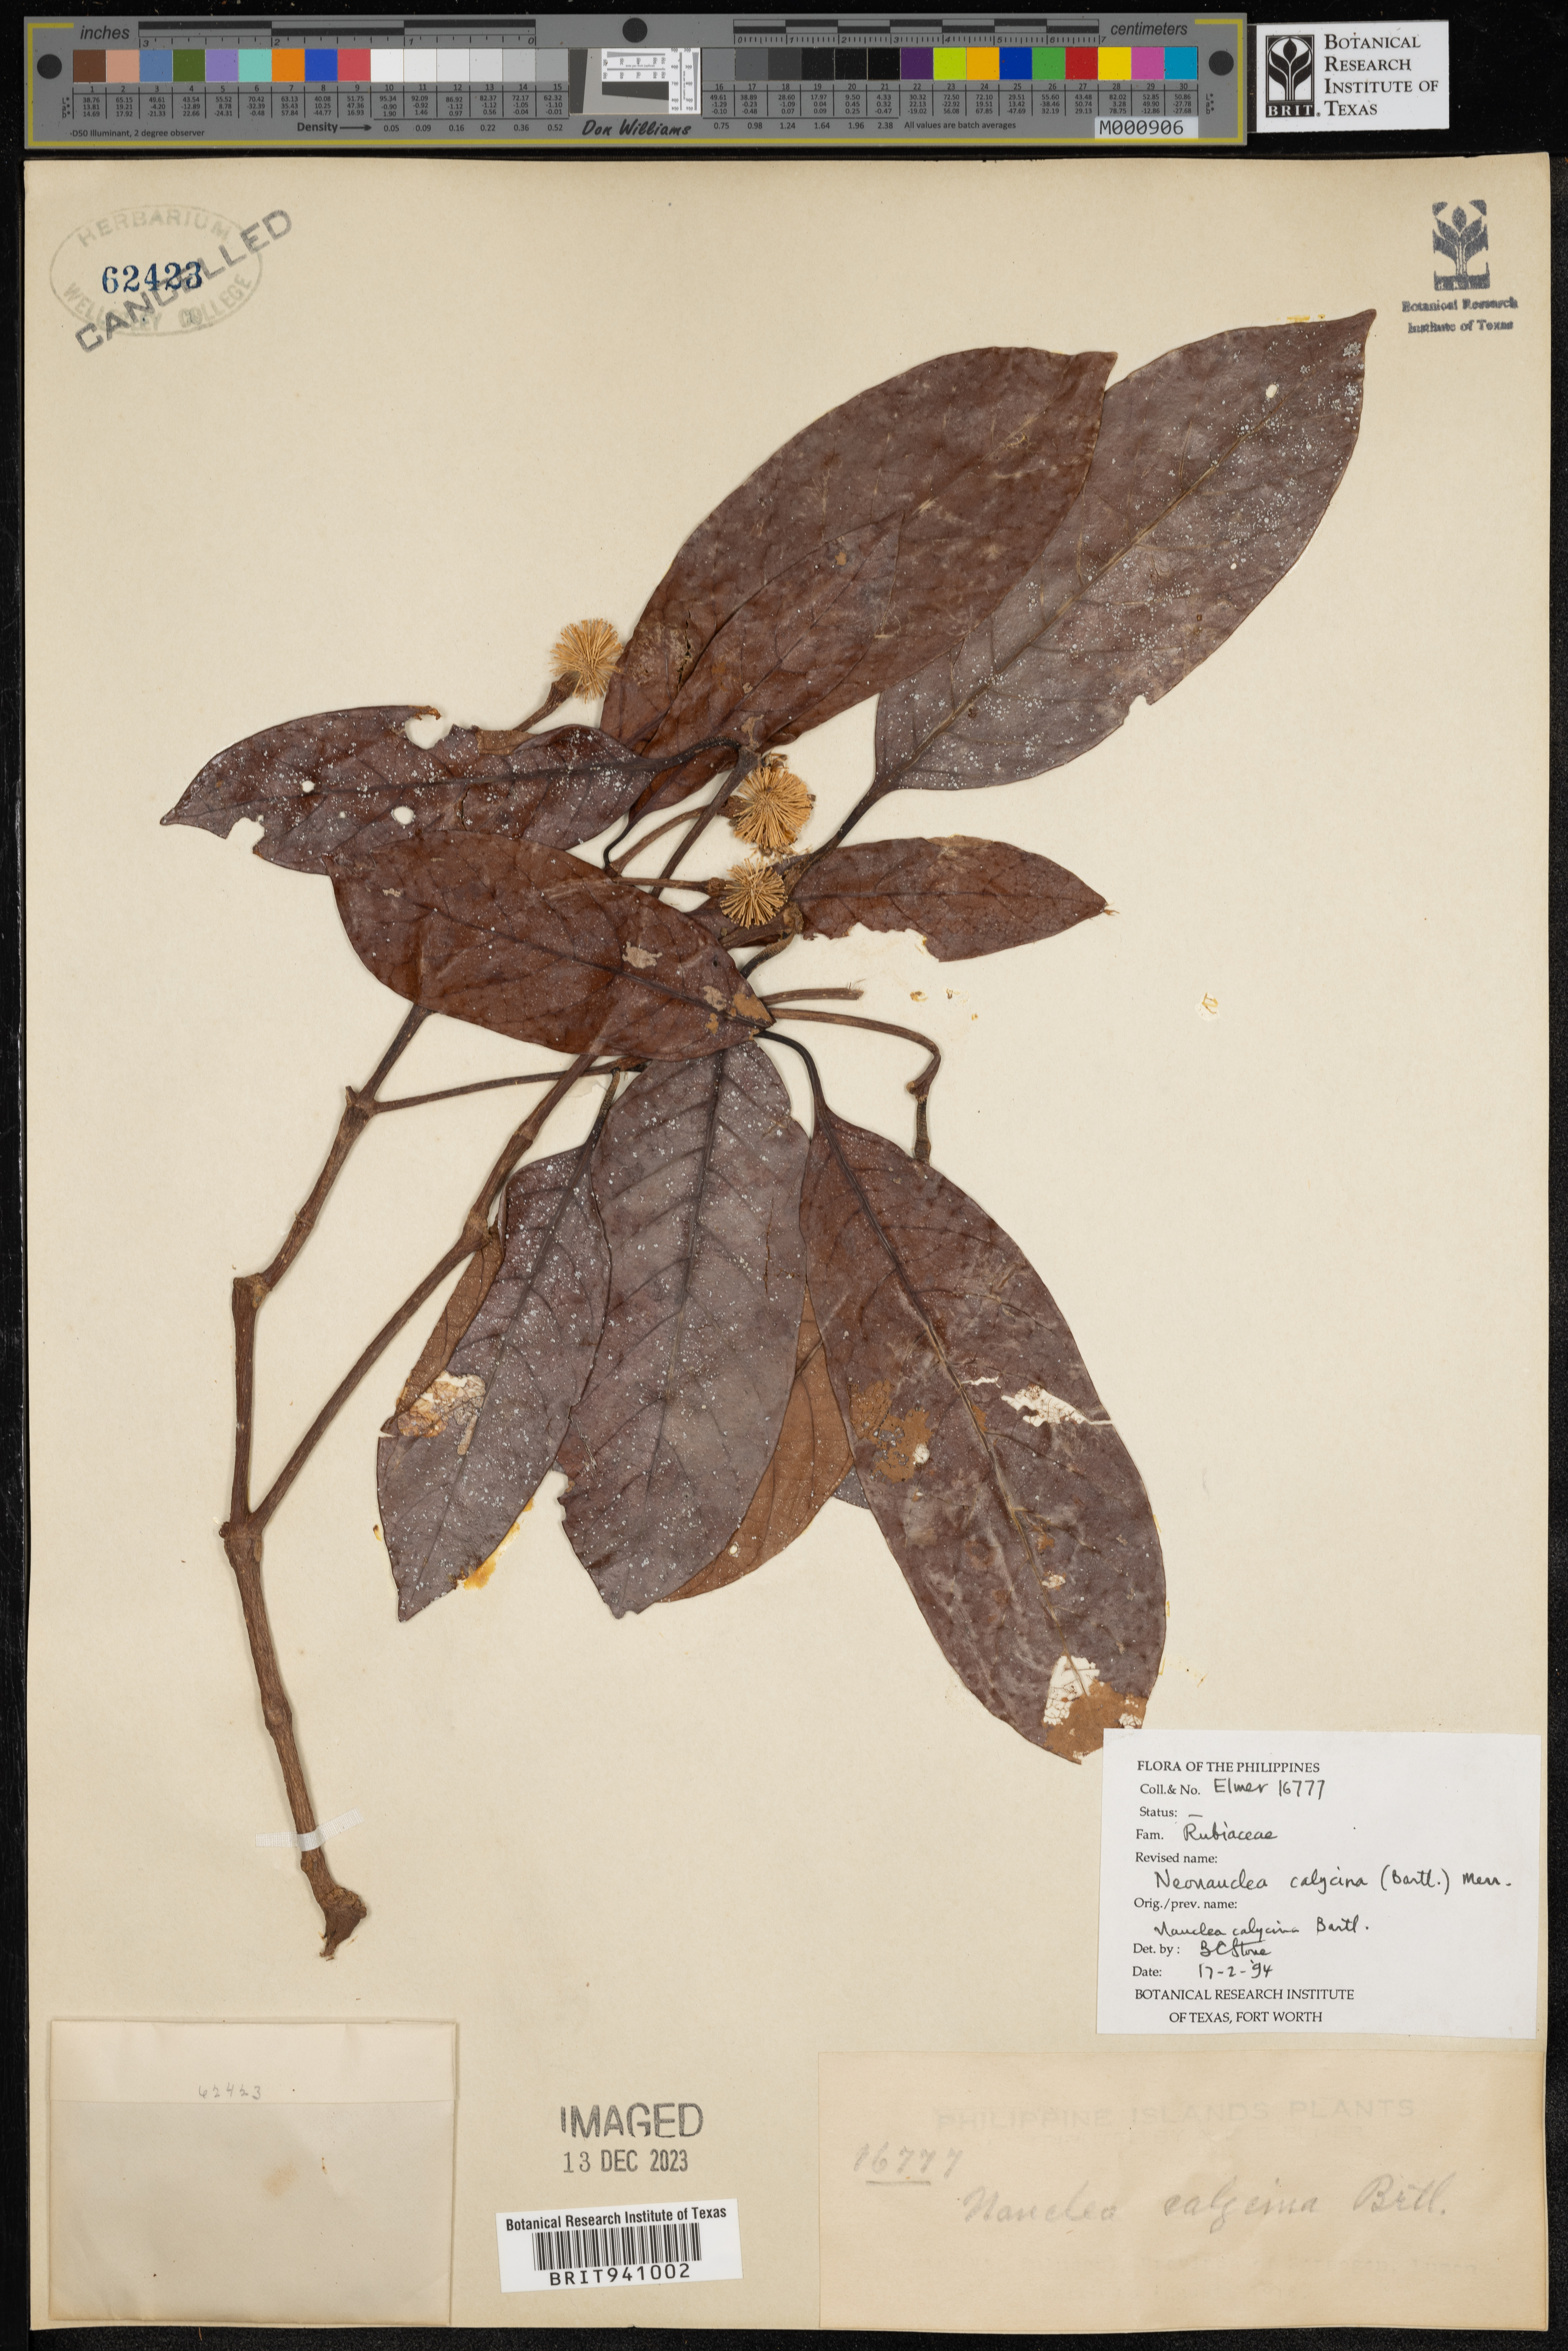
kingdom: Plantae
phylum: Tracheophyta
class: Magnoliopsida
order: Gentianales
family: Rubiaceae
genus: Neonauclea
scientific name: Neonauclea
